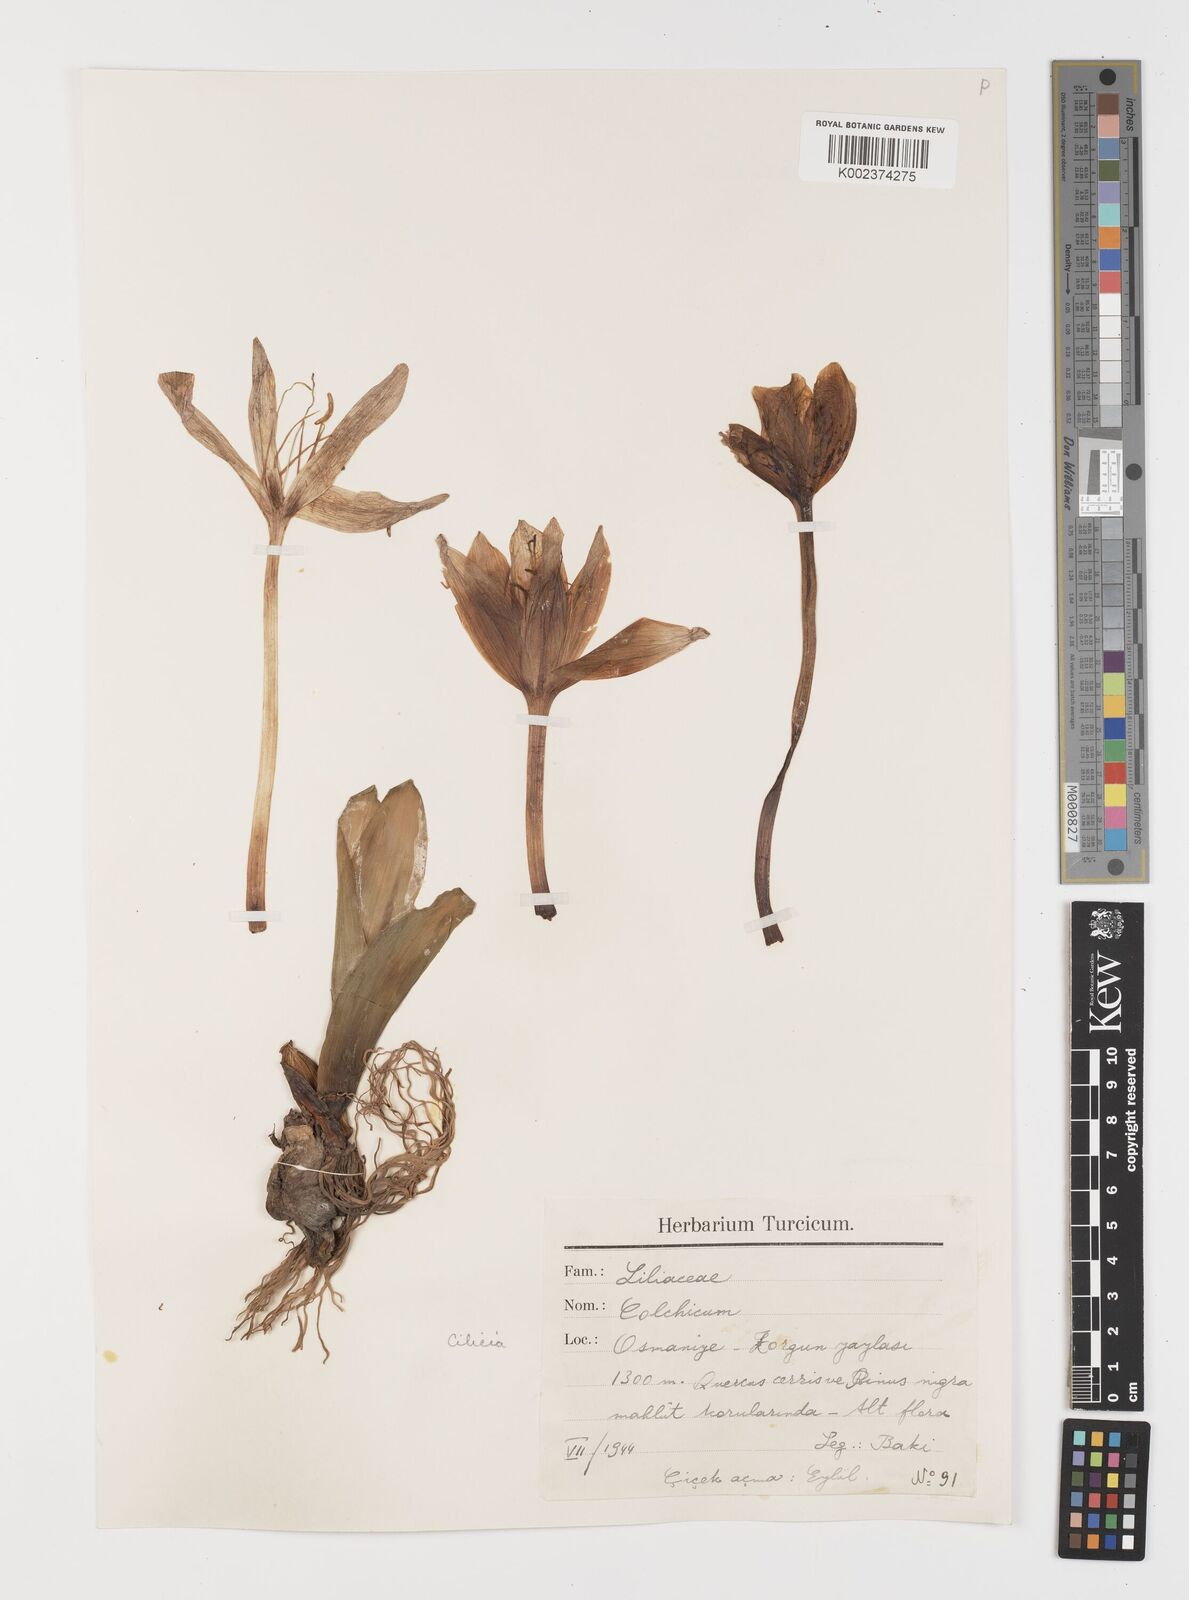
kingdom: Plantae
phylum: Tracheophyta
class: Liliopsida
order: Liliales
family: Colchicaceae
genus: Colchicum
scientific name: Colchicum
